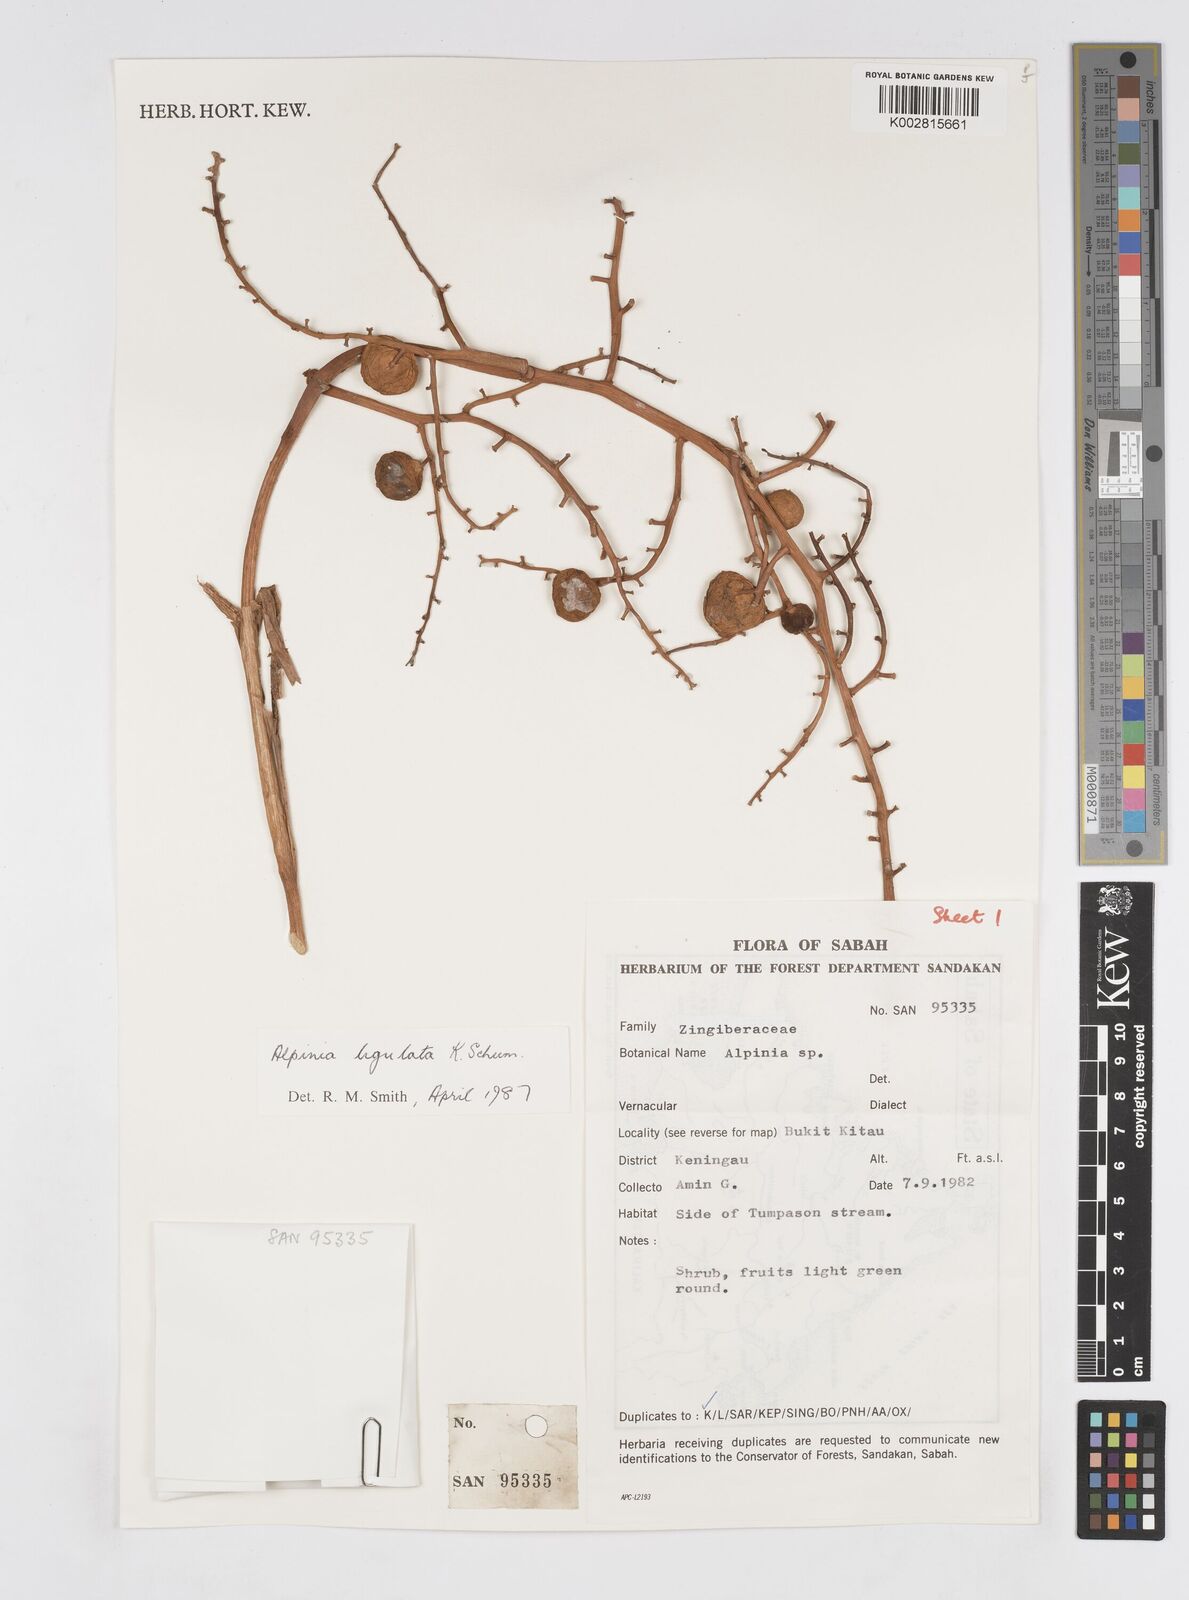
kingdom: Plantae
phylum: Tracheophyta
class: Liliopsida
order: Zingiberales
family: Zingiberaceae
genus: Alpinia
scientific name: Alpinia ligulata
